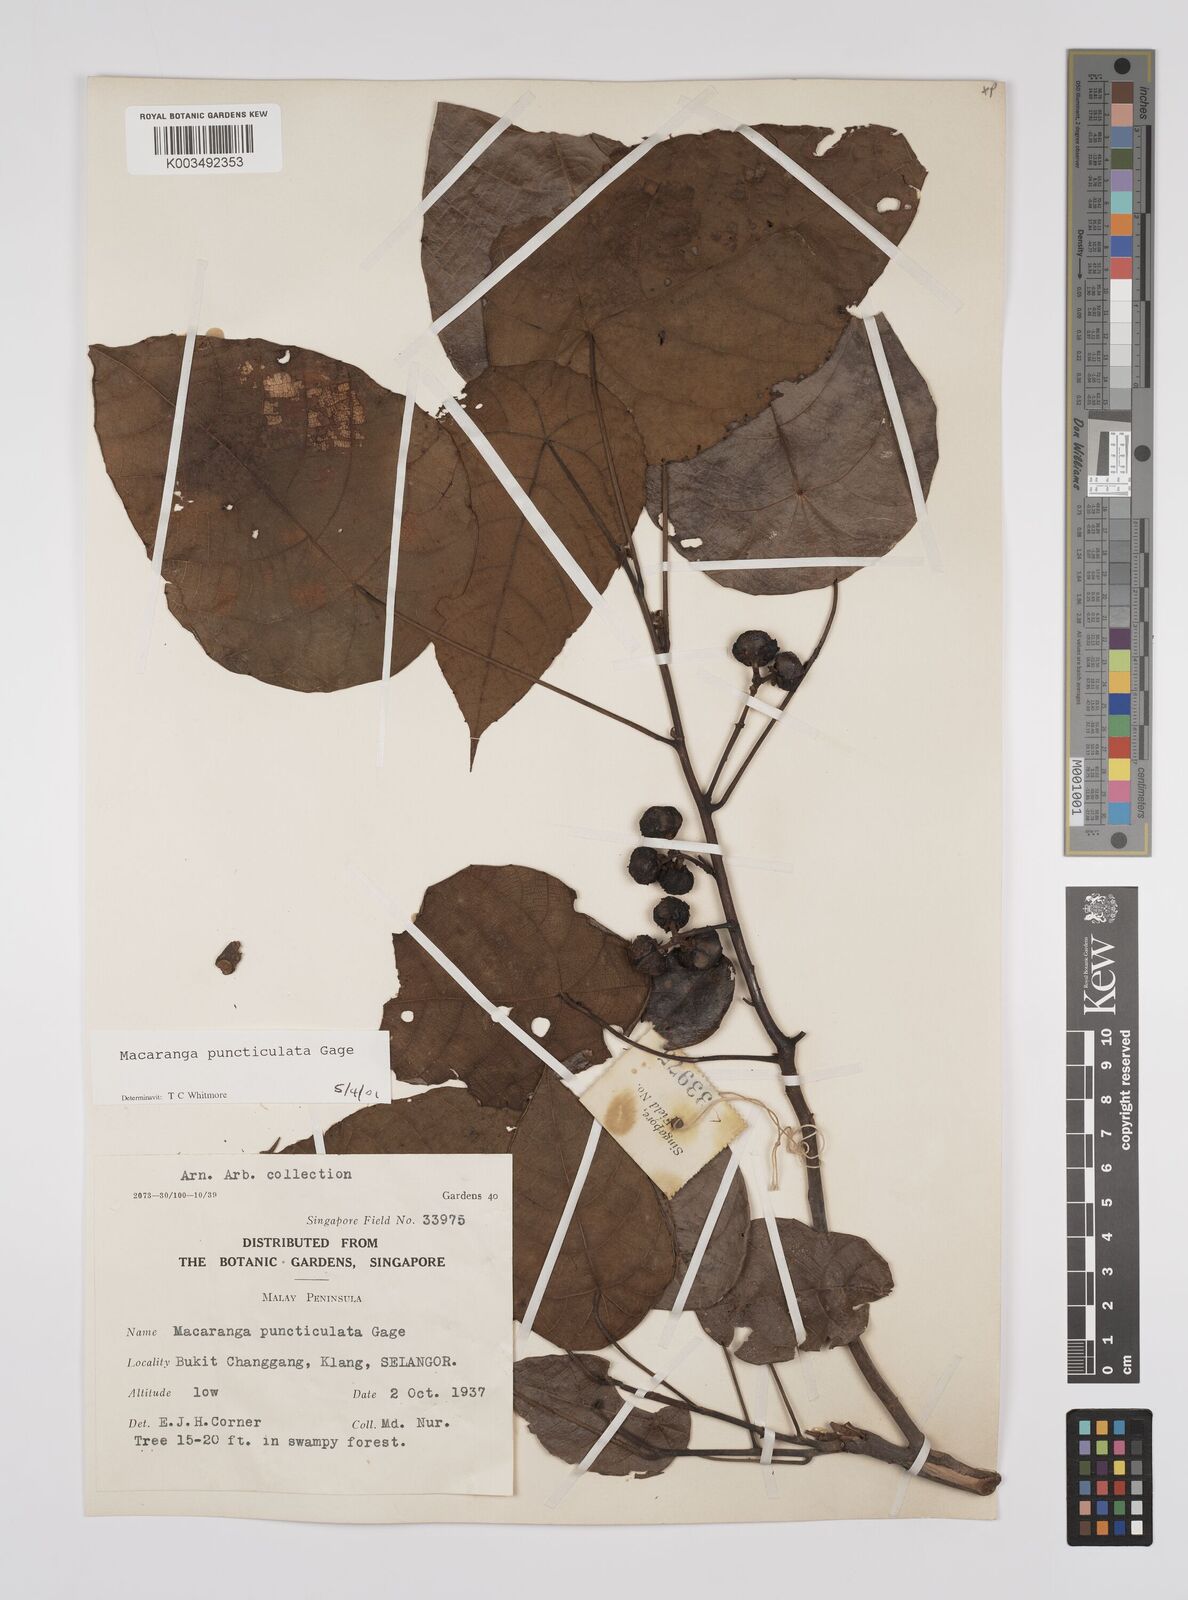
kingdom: Plantae
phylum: Tracheophyta
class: Magnoliopsida
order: Malpighiales
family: Euphorbiaceae
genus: Macaranga
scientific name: Macaranga puncticulata
